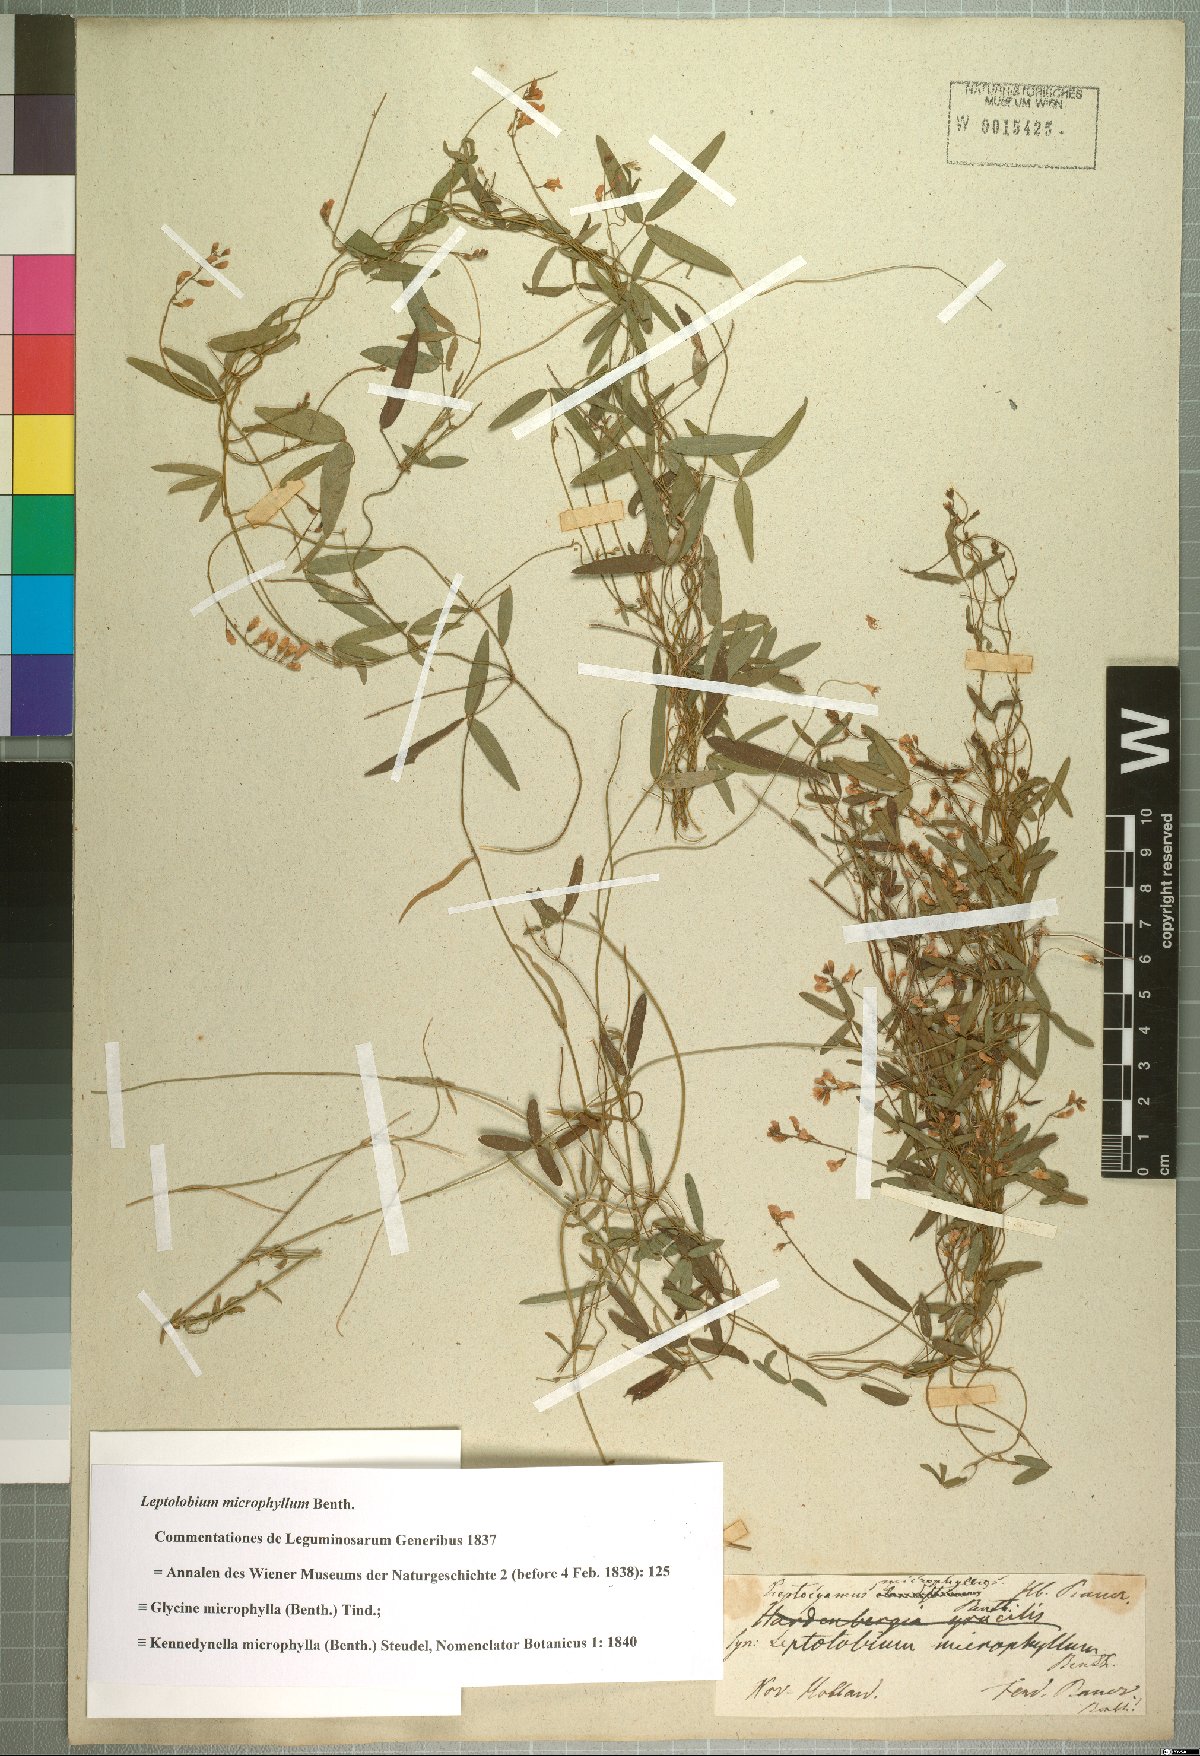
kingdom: Plantae
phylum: Tracheophyta
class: Magnoliopsida
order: Fabales
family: Fabaceae
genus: Glycine
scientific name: Glycine microphylla
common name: Small-leaf glycine
